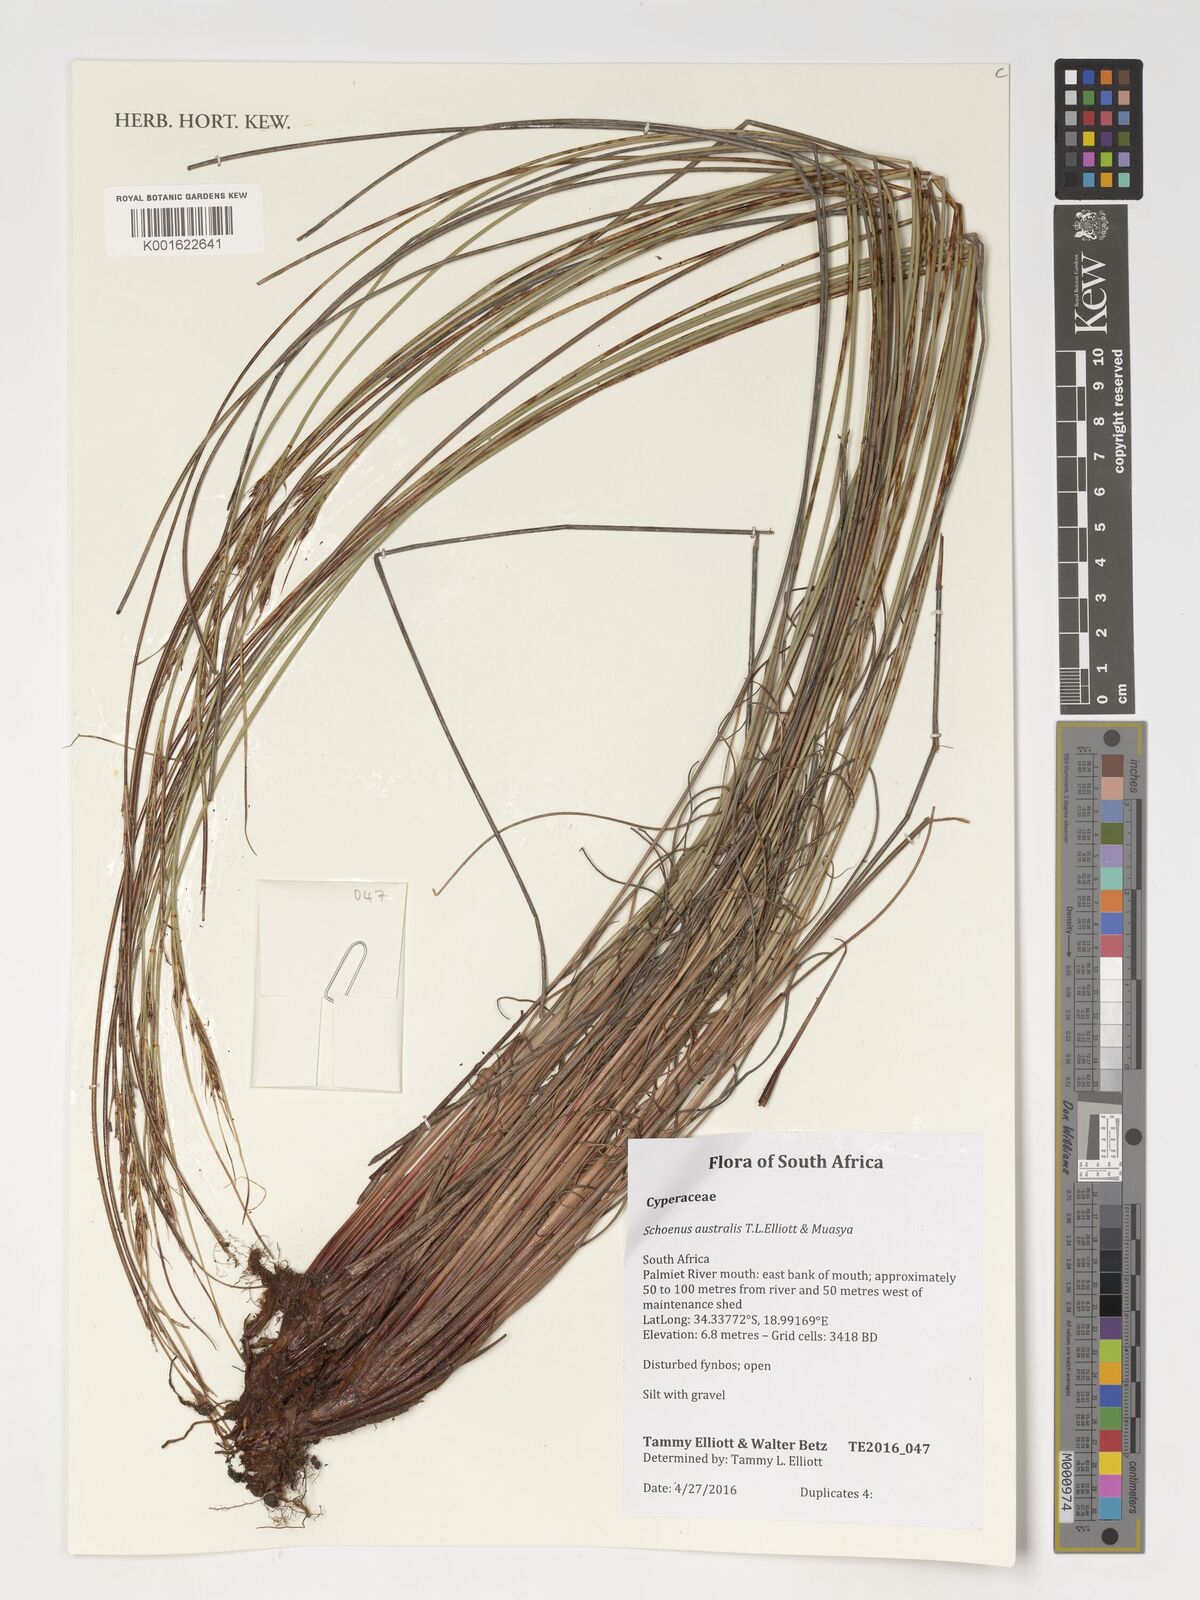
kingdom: Plantae
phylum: Tracheophyta
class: Liliopsida
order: Poales
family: Cyperaceae
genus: Scirpoides
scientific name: Scirpoides holoschoenus
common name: Round-headed club-rush
